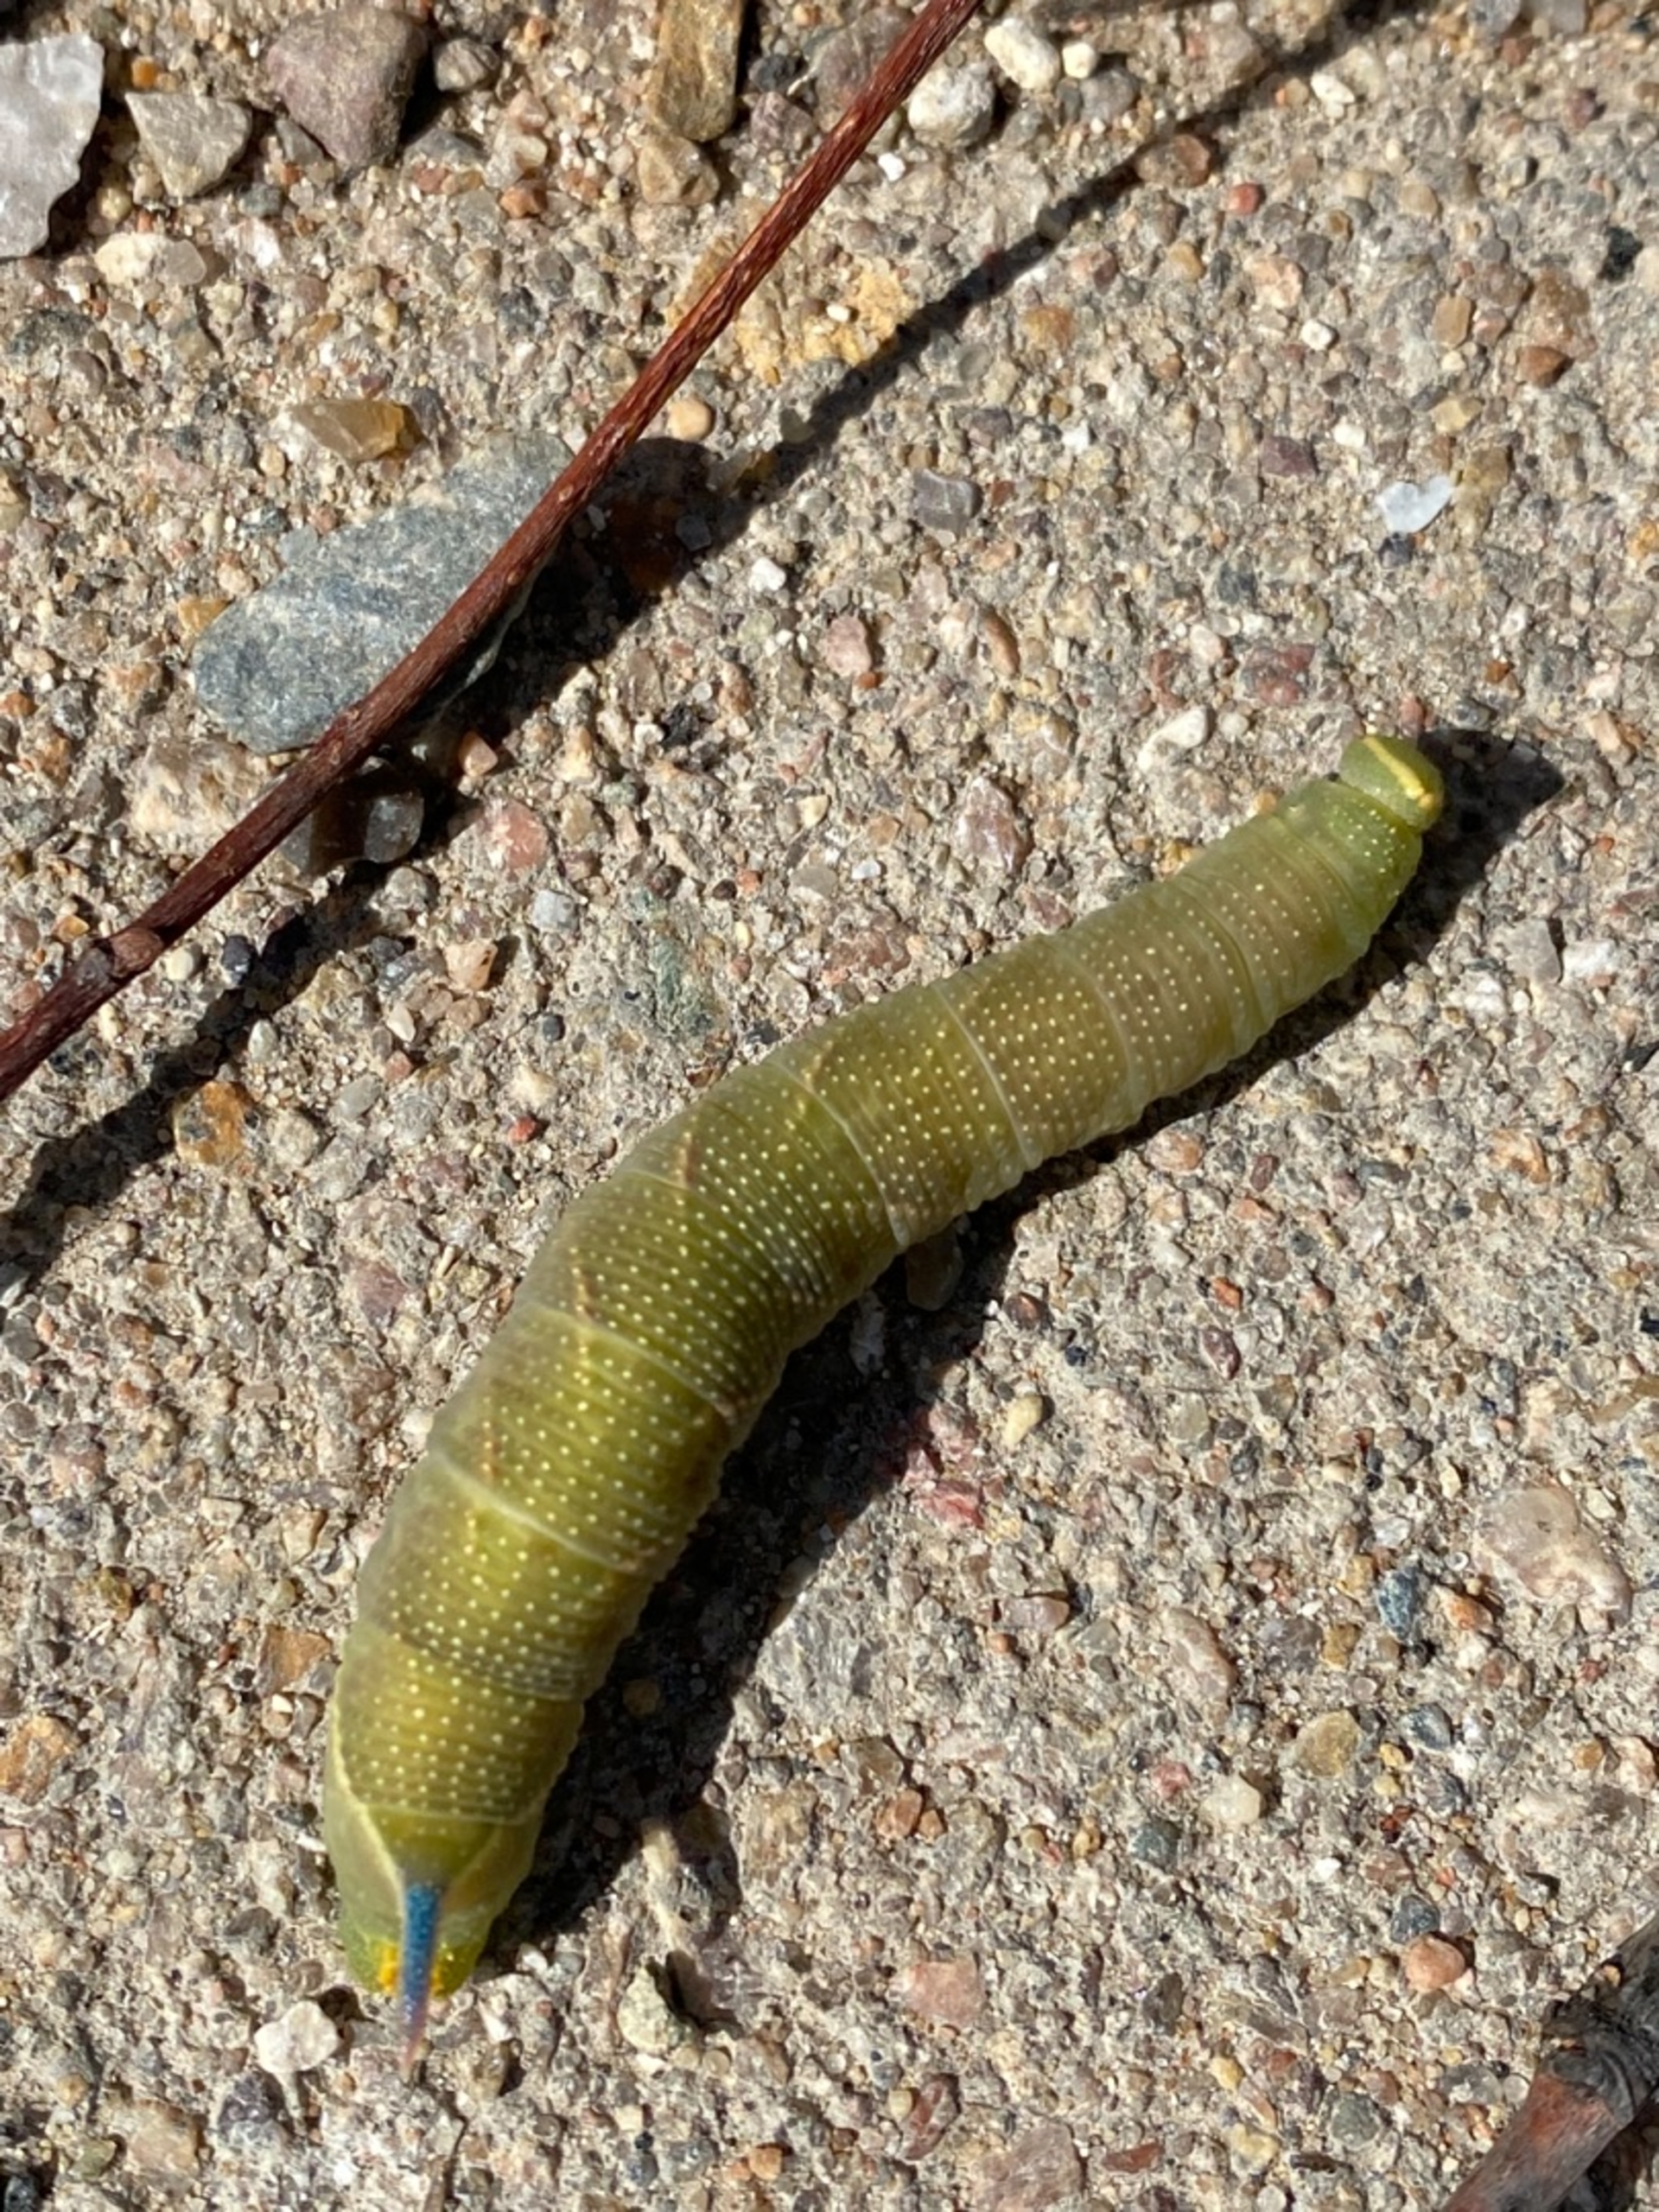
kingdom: Animalia
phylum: Arthropoda
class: Insecta
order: Lepidoptera
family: Sphingidae
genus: Mimas
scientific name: Mimas tiliae
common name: Lindesværmer
